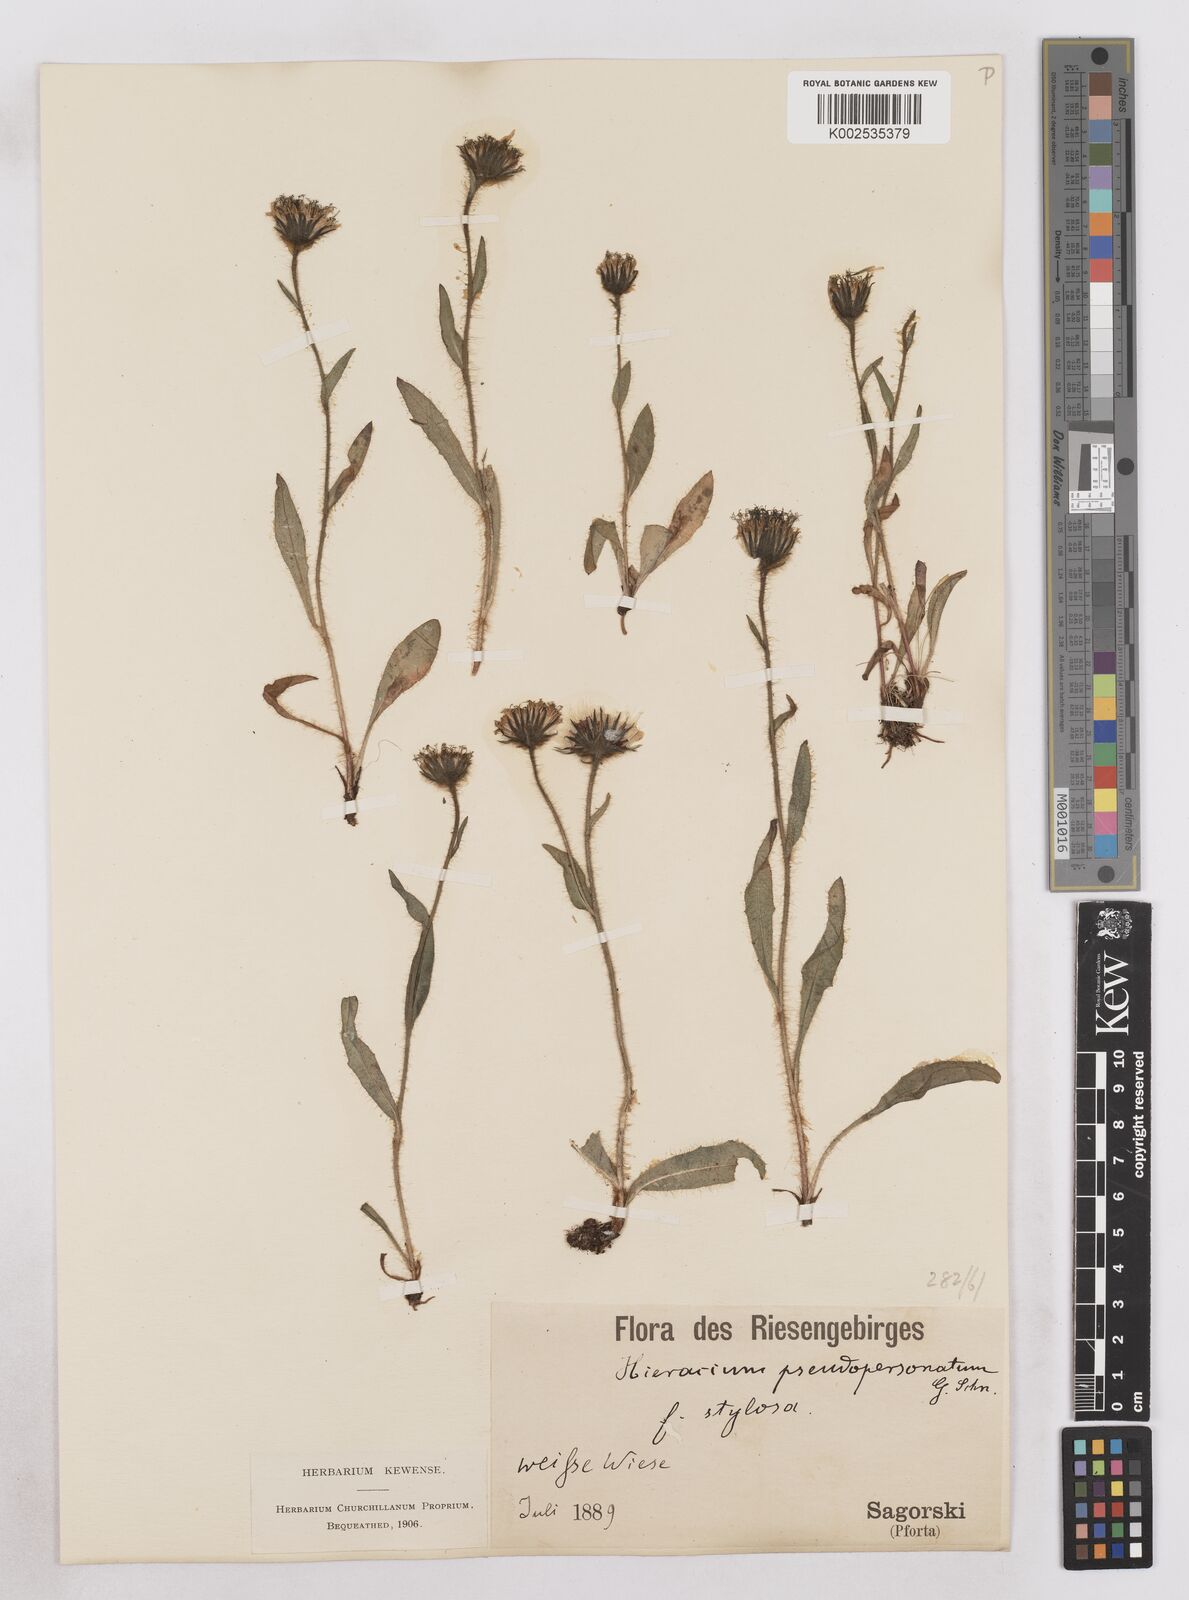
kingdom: Plantae
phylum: Tracheophyta
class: Magnoliopsida
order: Asterales
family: Asteraceae
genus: Hieracium
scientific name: Hieracium fritzei
